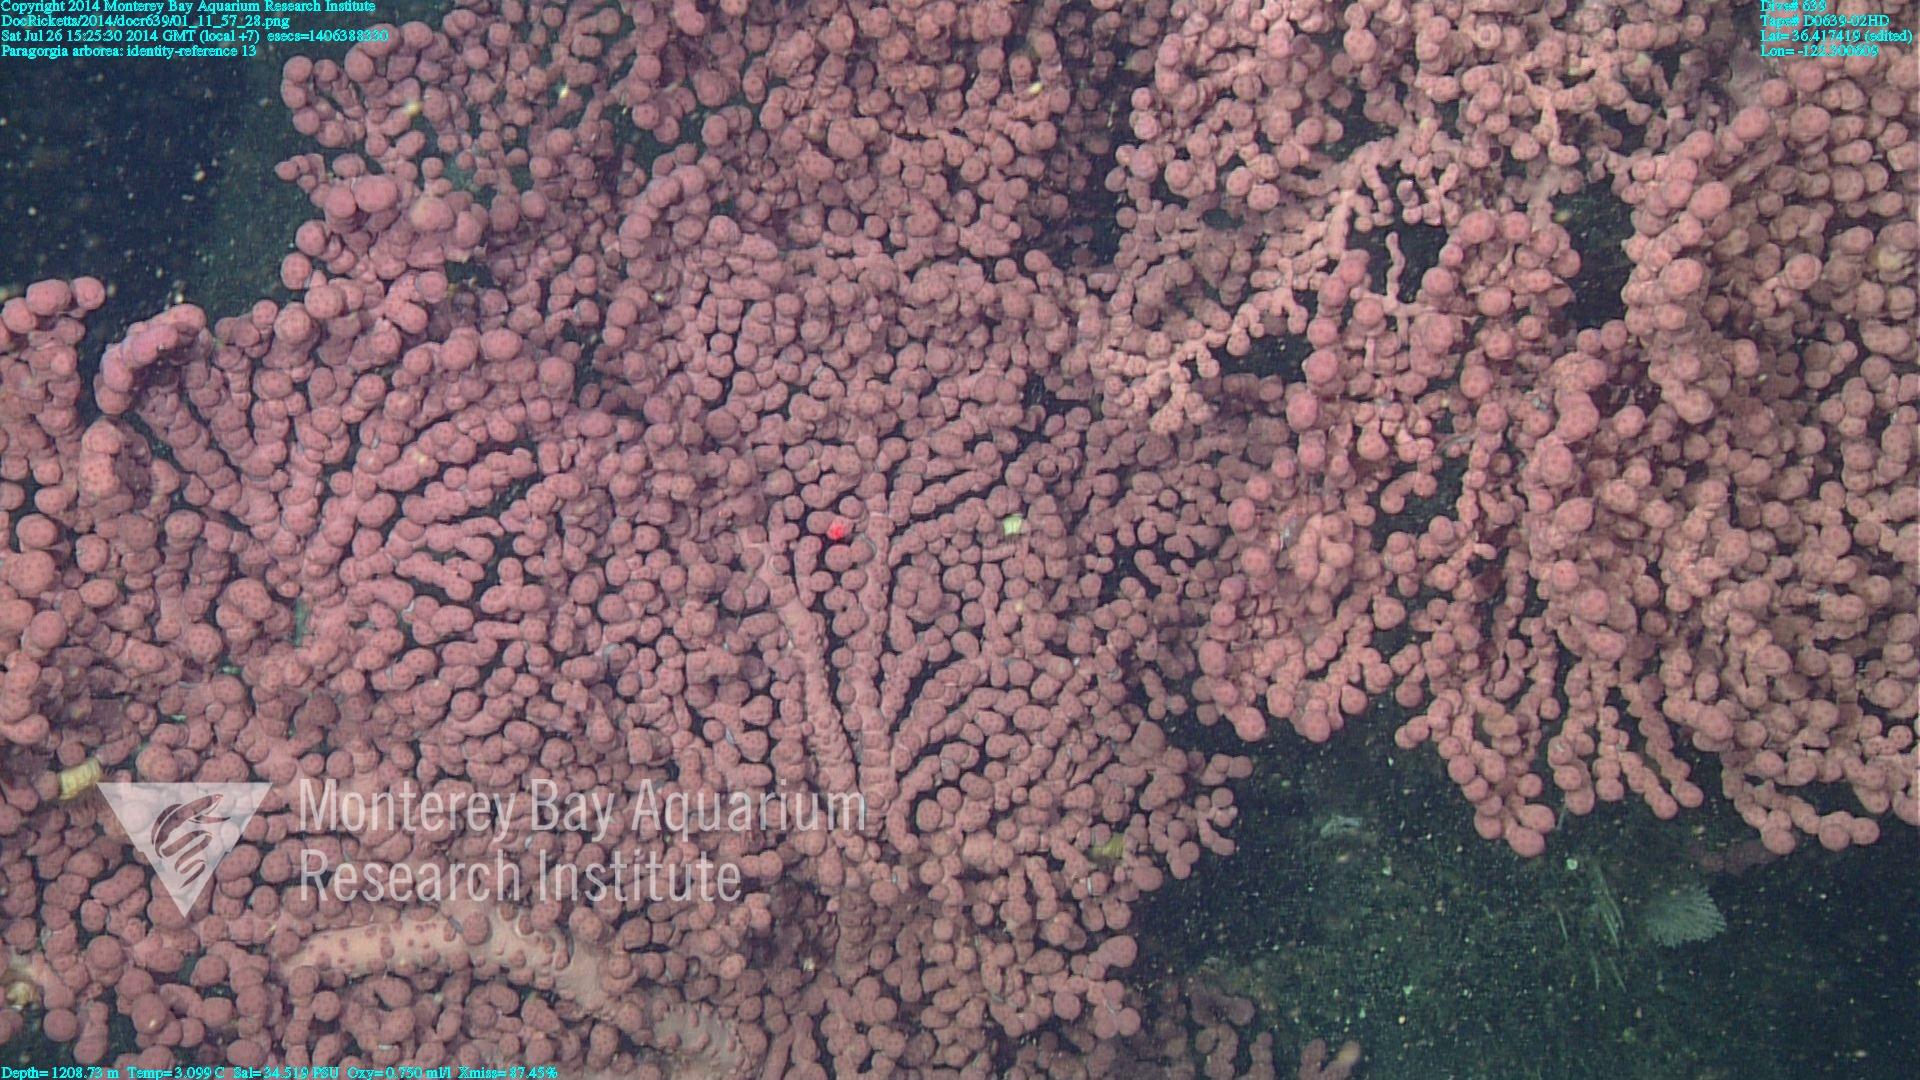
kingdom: Animalia
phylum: Cnidaria
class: Anthozoa
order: Scleralcyonacea
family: Coralliidae
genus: Paragorgia
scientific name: Paragorgia arborea
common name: Bubble gum coral
